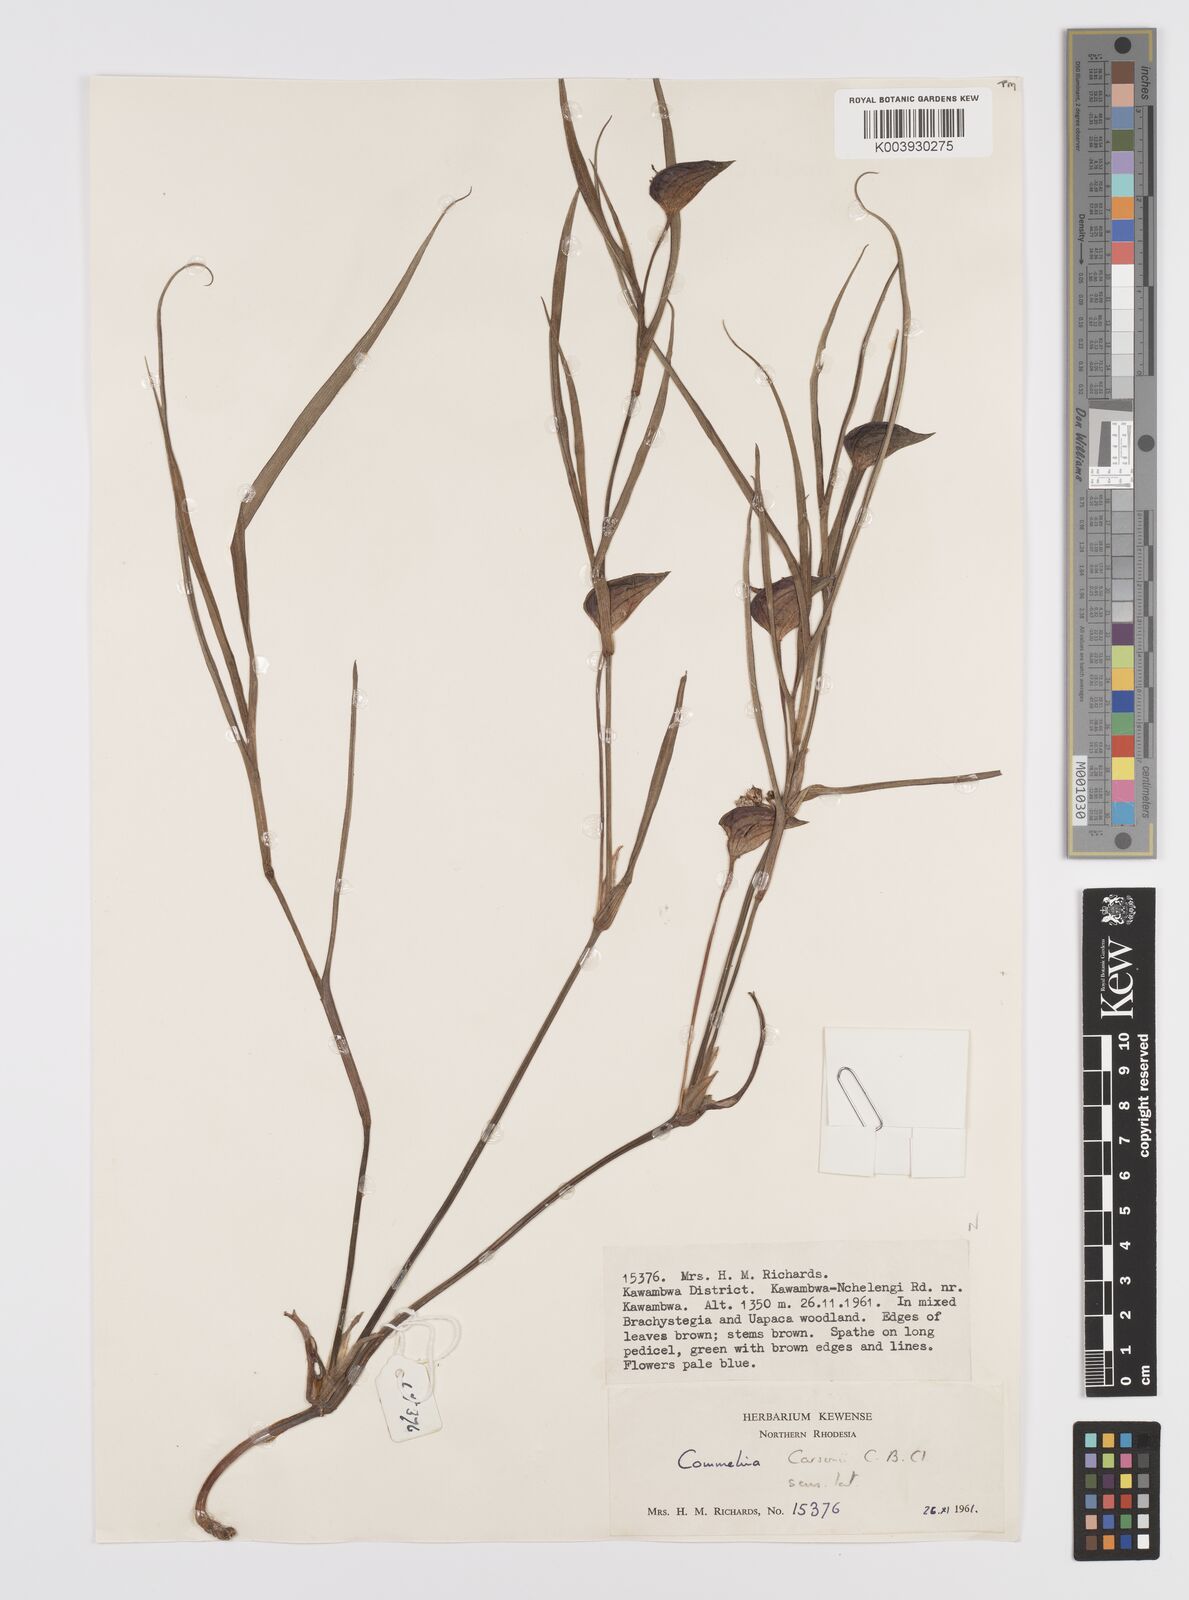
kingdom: Plantae
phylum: Tracheophyta
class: Liliopsida
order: Commelinales
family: Commelinaceae
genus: Commelina
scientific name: Commelina schweinfurthii
